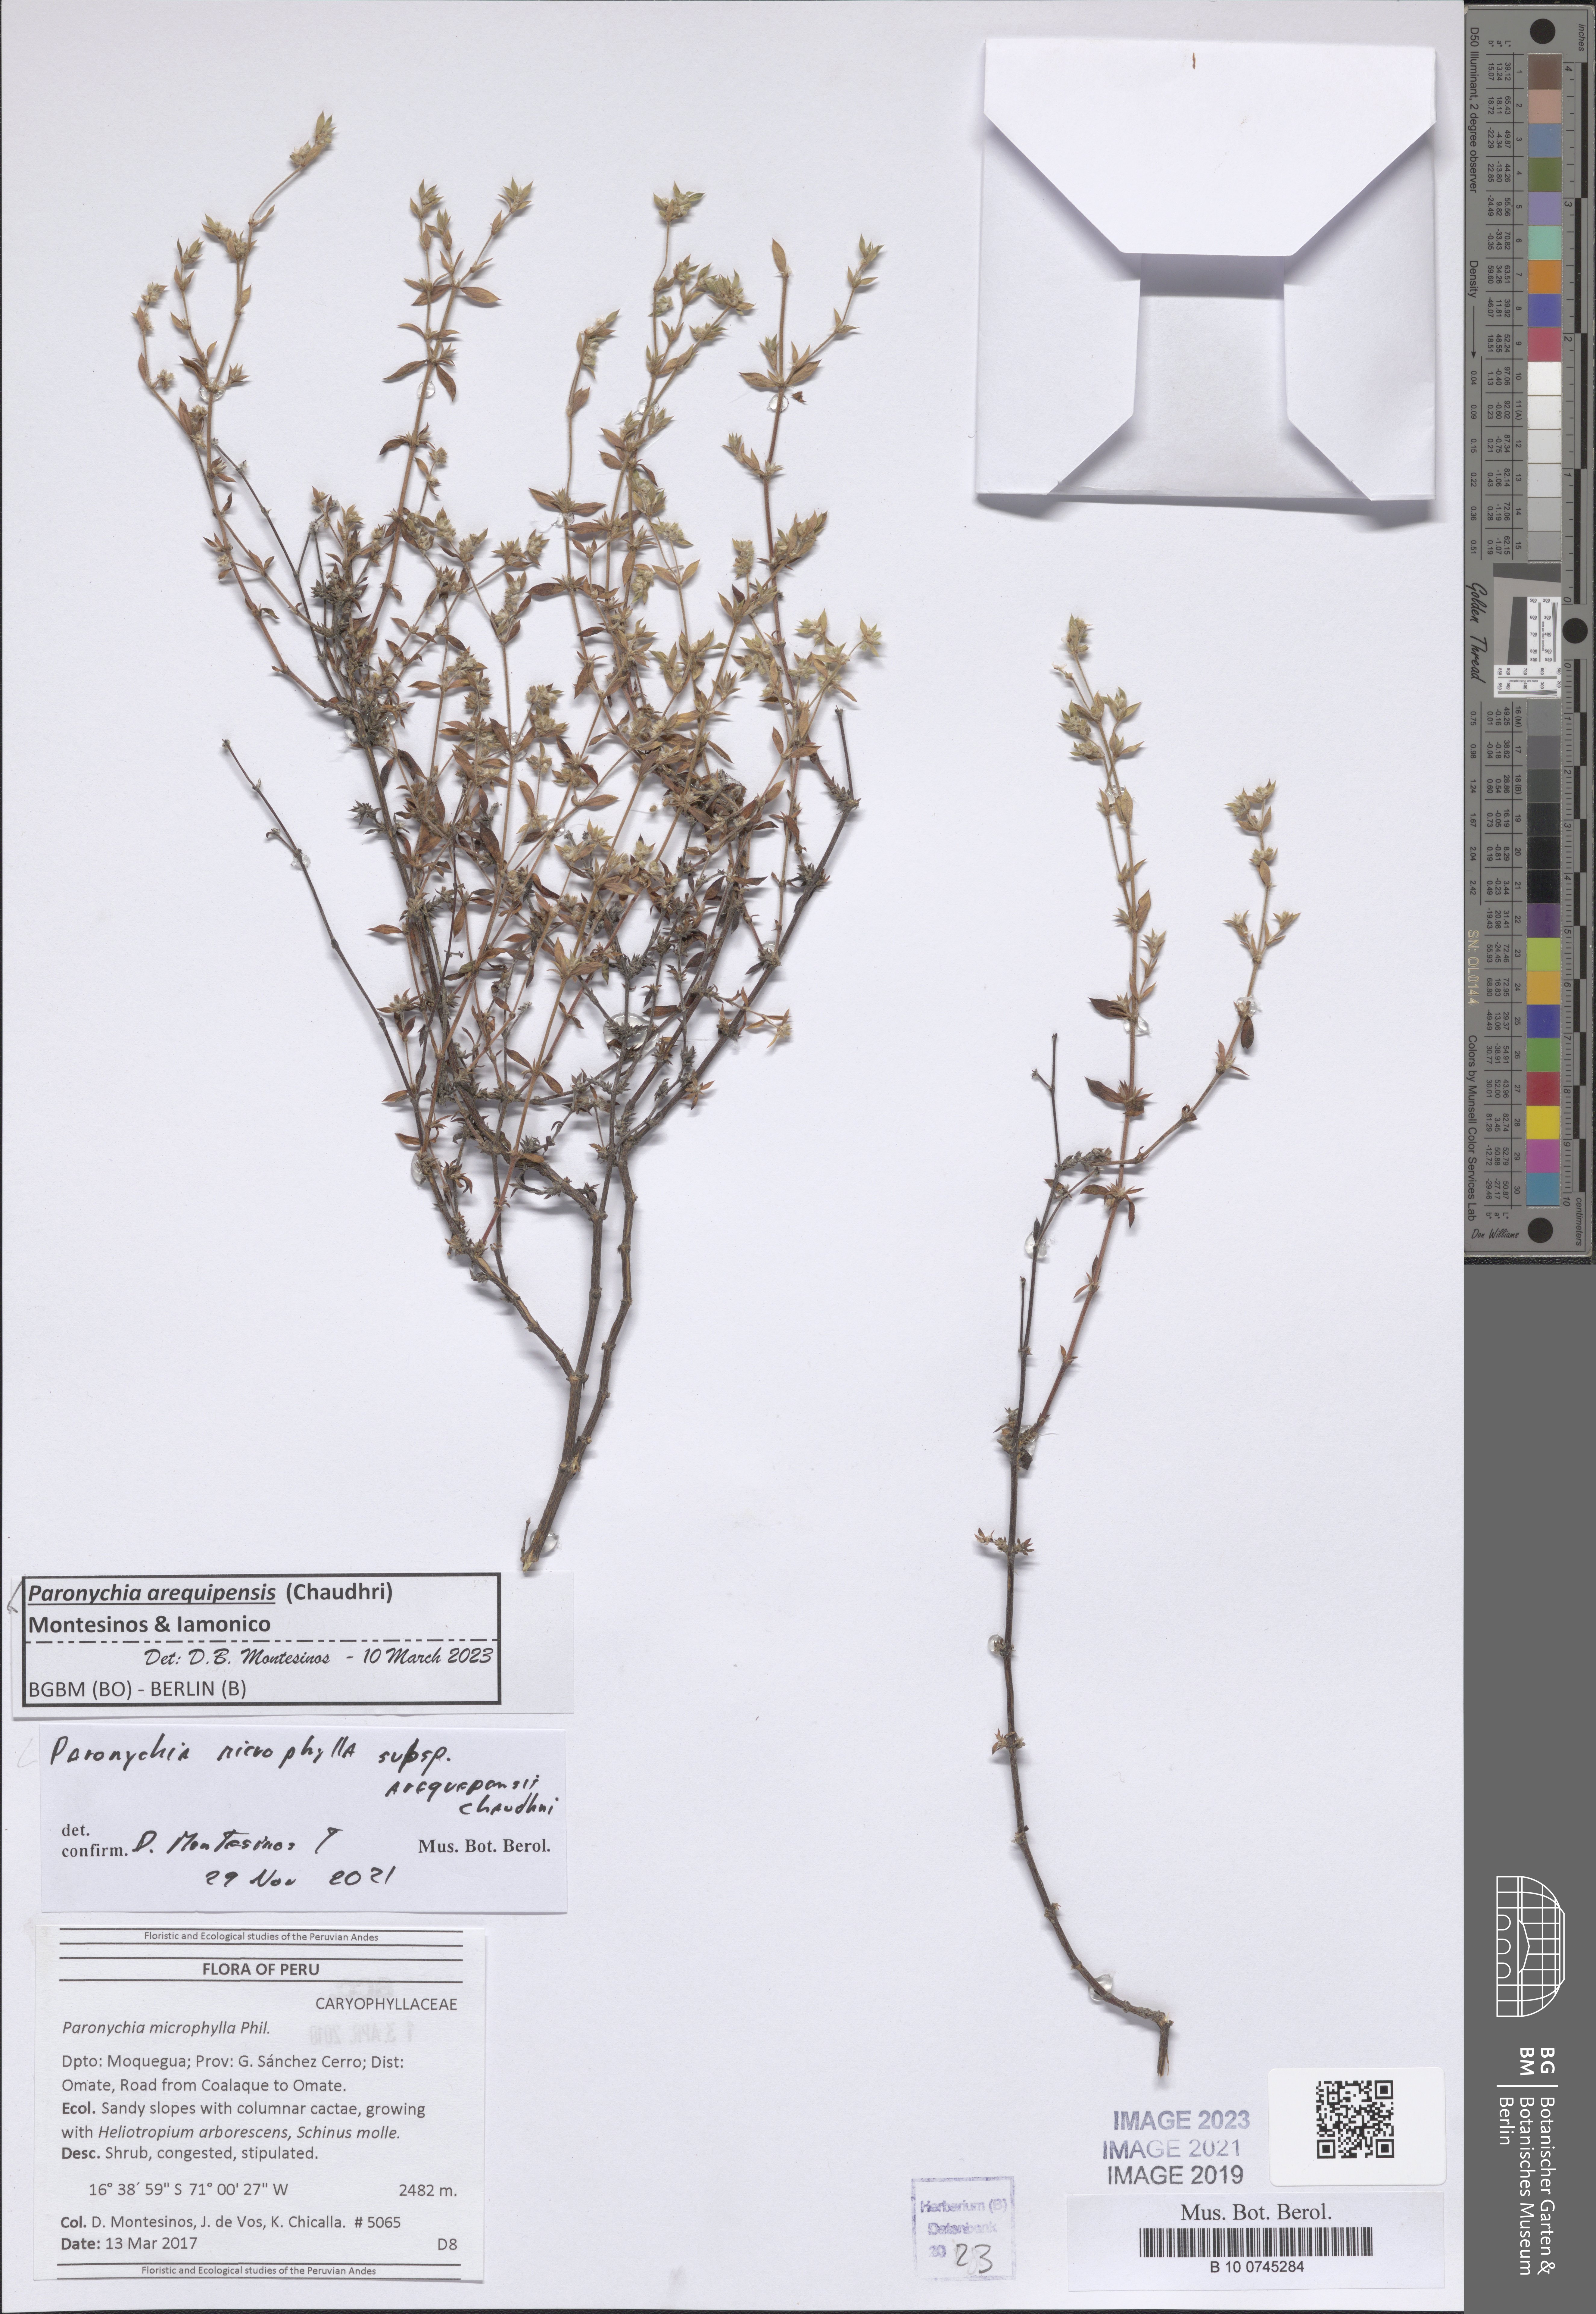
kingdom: Plantae
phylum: Tracheophyta
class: Magnoliopsida
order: Caryophyllales
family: Caryophyllaceae
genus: Paronychia
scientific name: Paronychia
